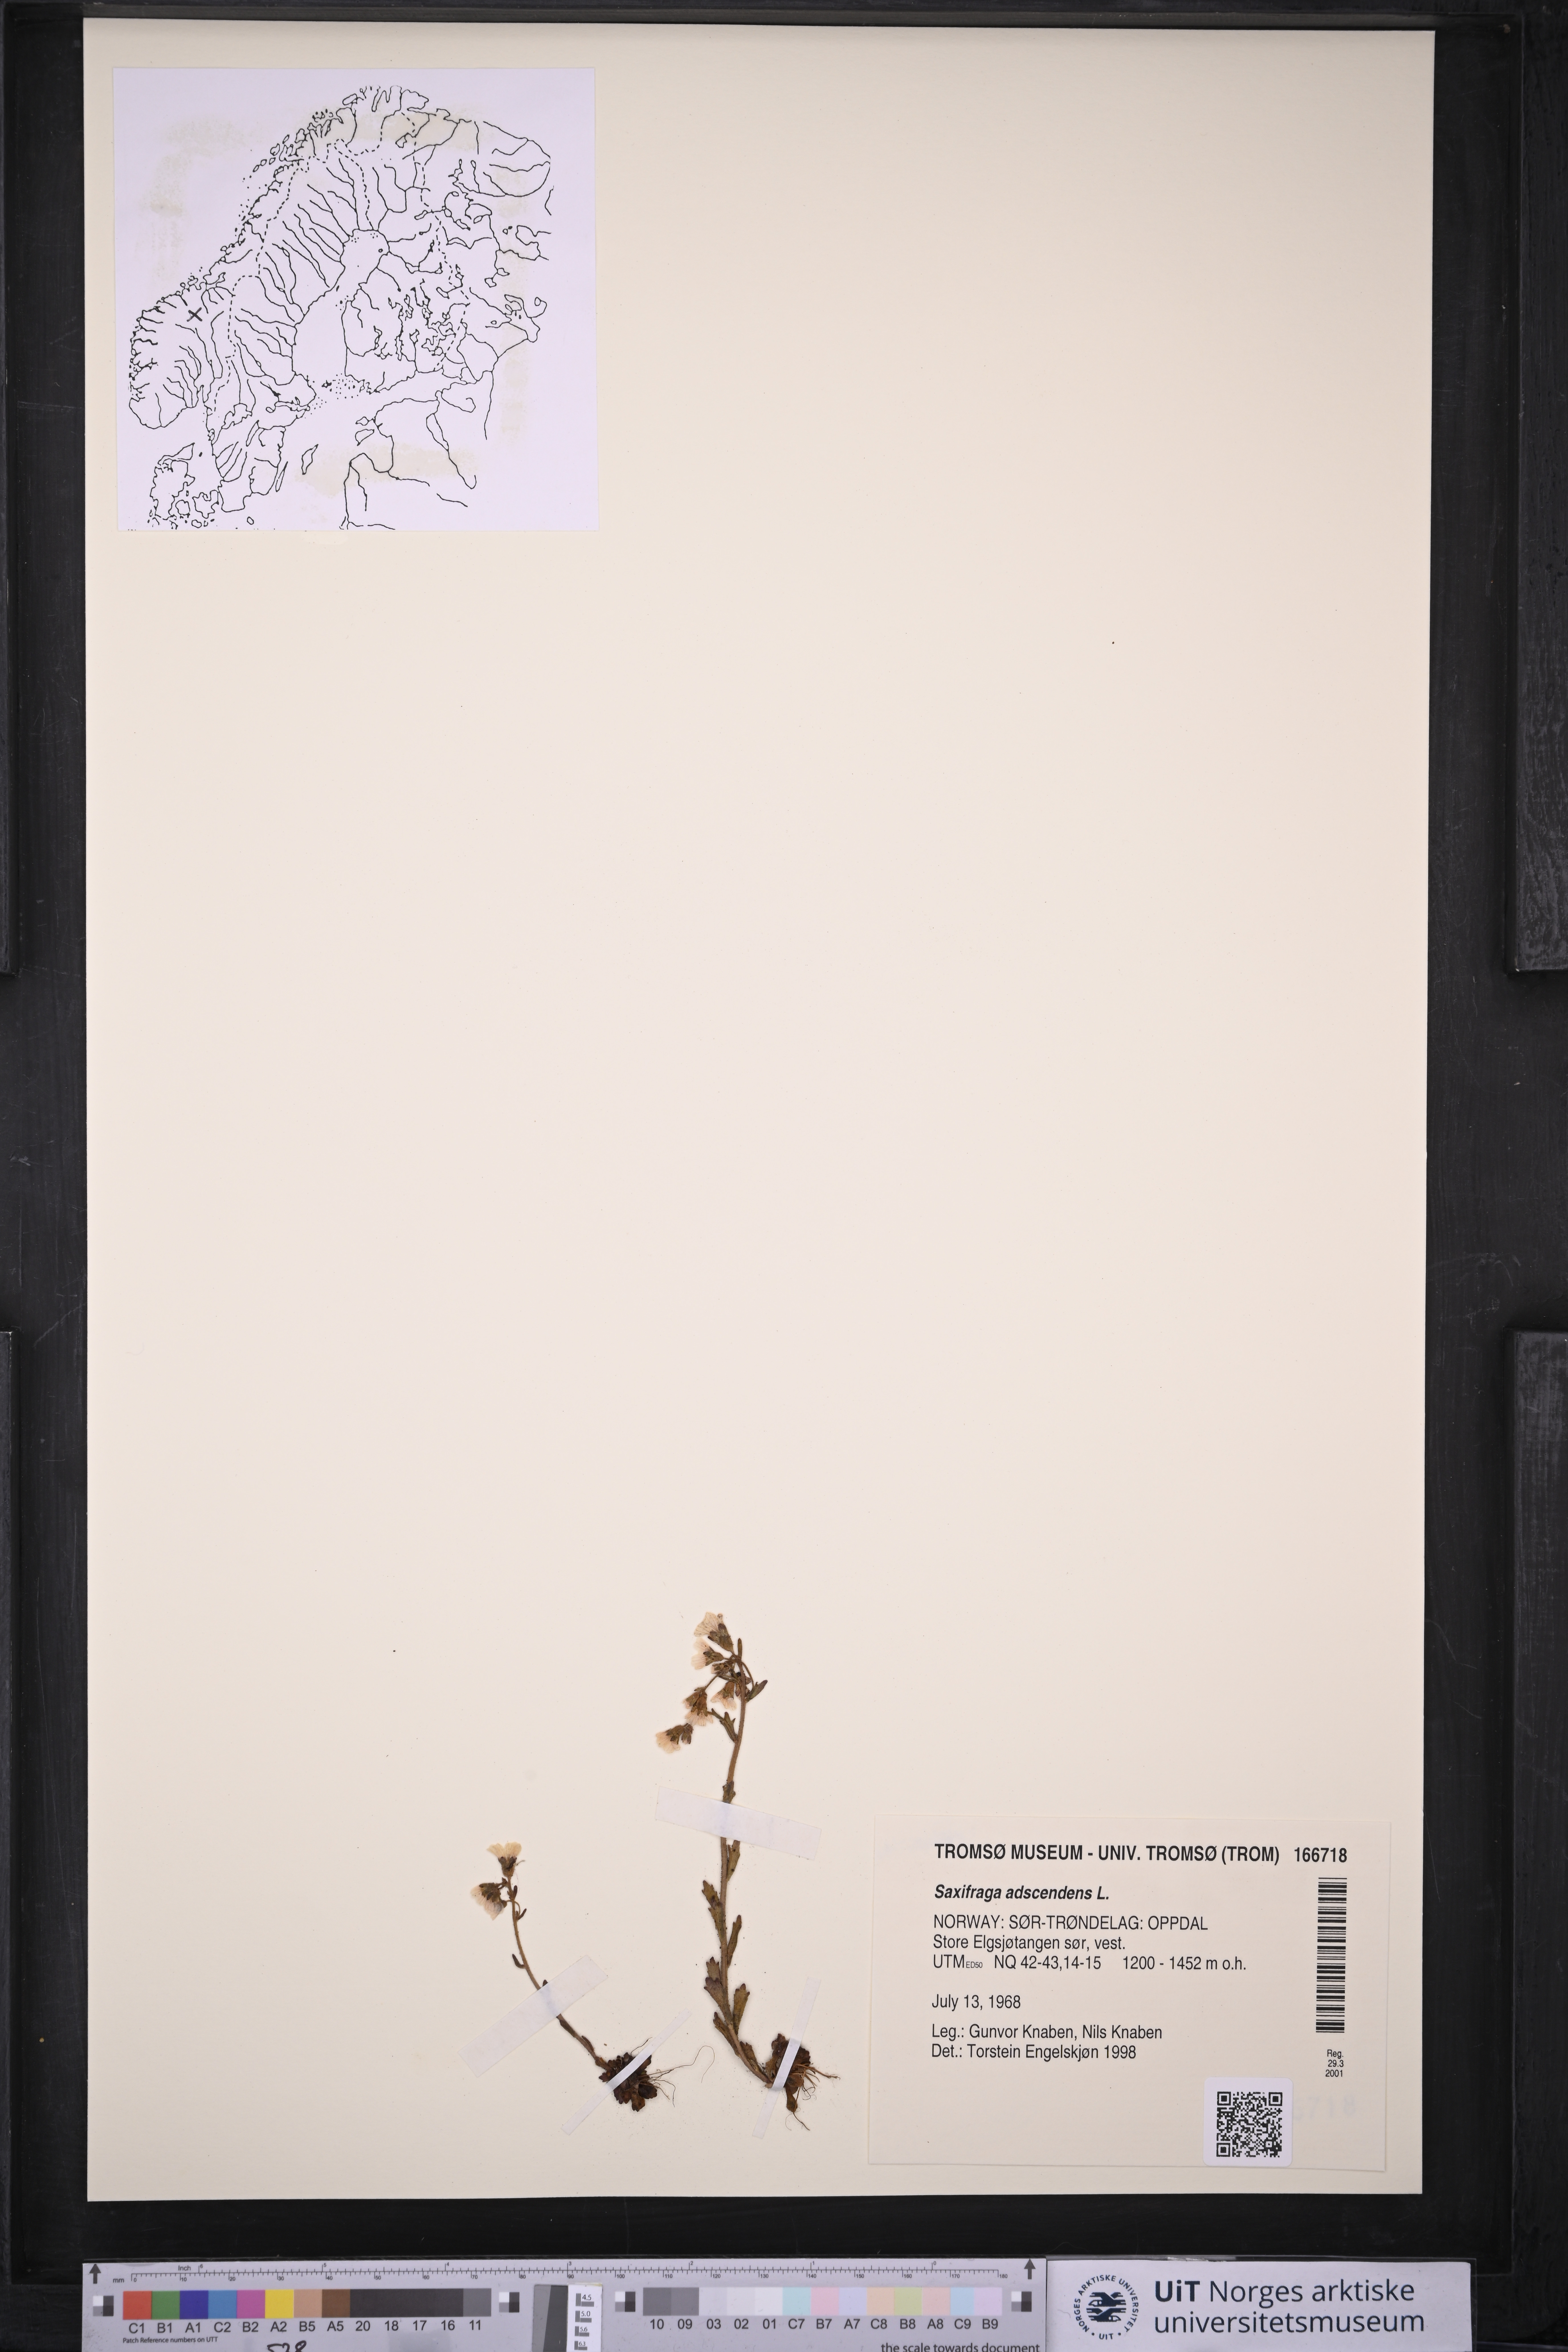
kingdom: Plantae
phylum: Tracheophyta
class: Magnoliopsida
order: Saxifragales
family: Saxifragaceae
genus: Saxifraga
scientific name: Saxifraga adscendens
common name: Ascending saxifrage
